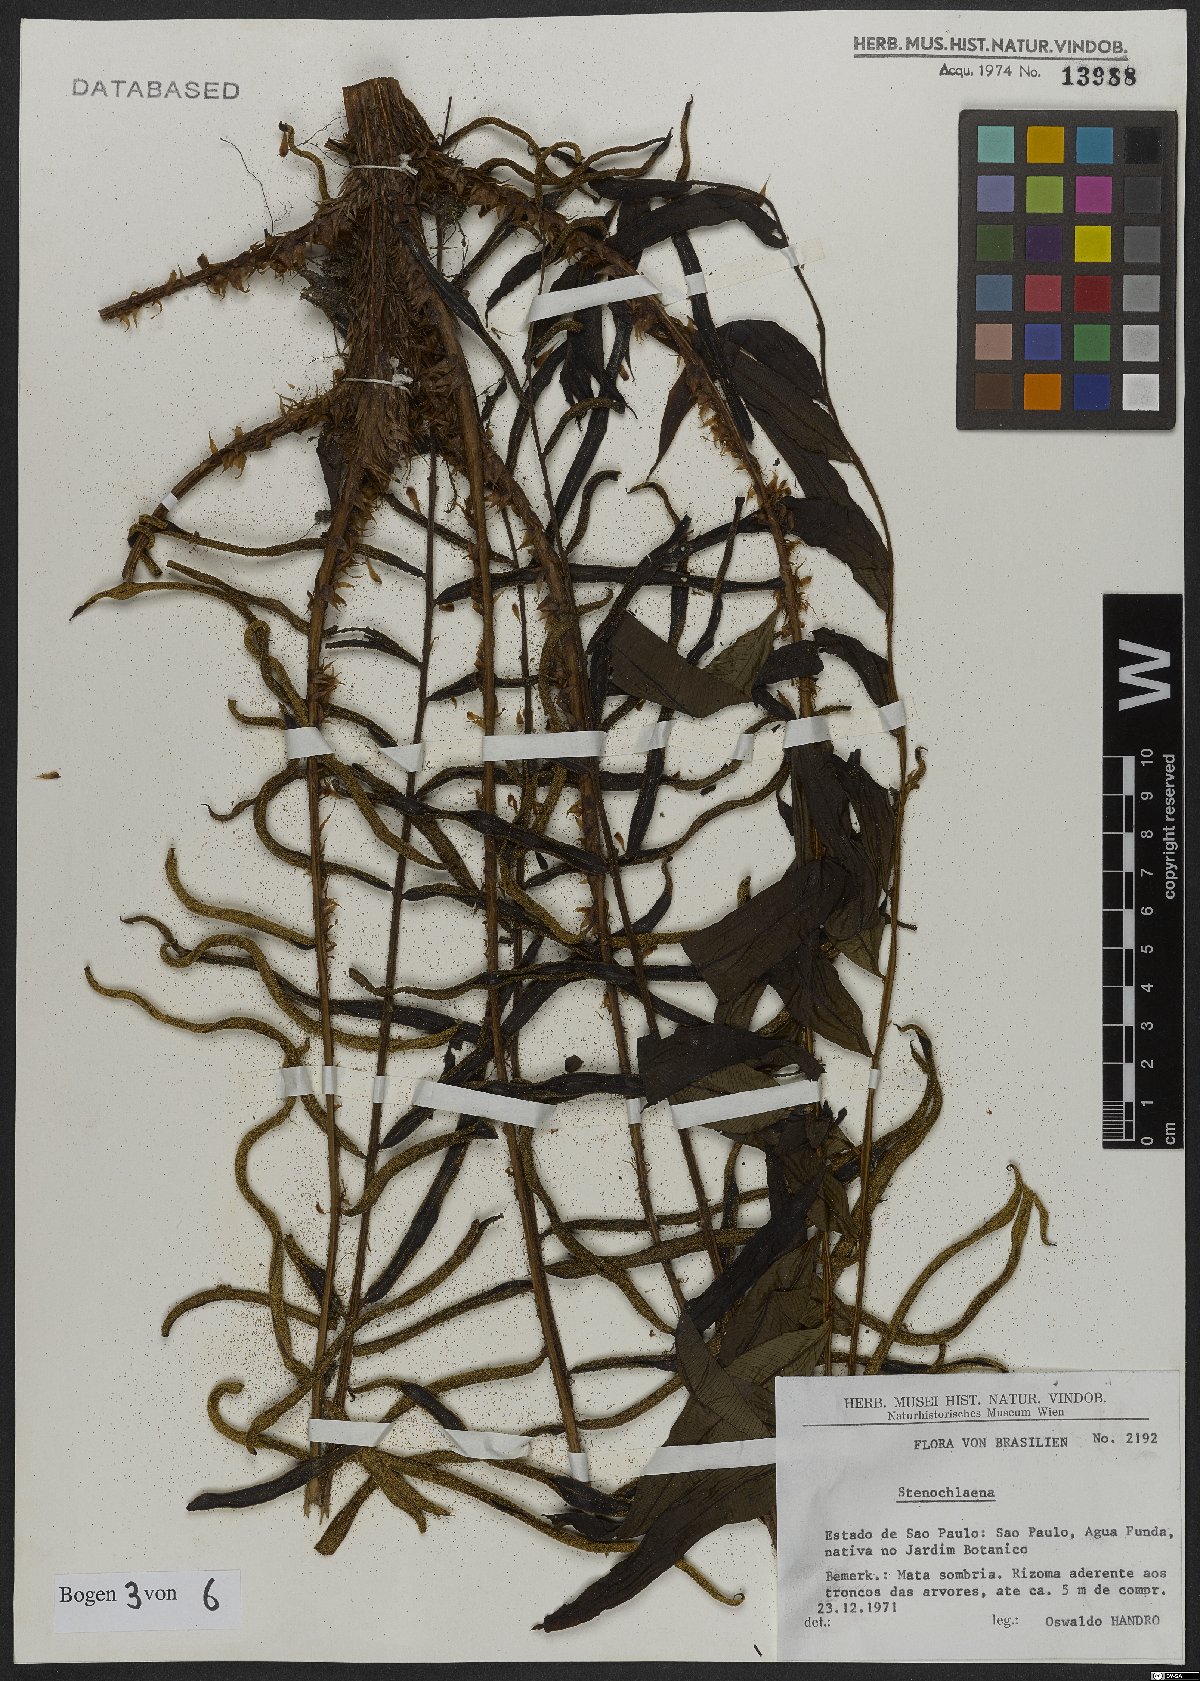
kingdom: Plantae
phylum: Tracheophyta
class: Polypodiopsida
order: Polypodiales
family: Blechnaceae
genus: Stenochlaena
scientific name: Stenochlaena
